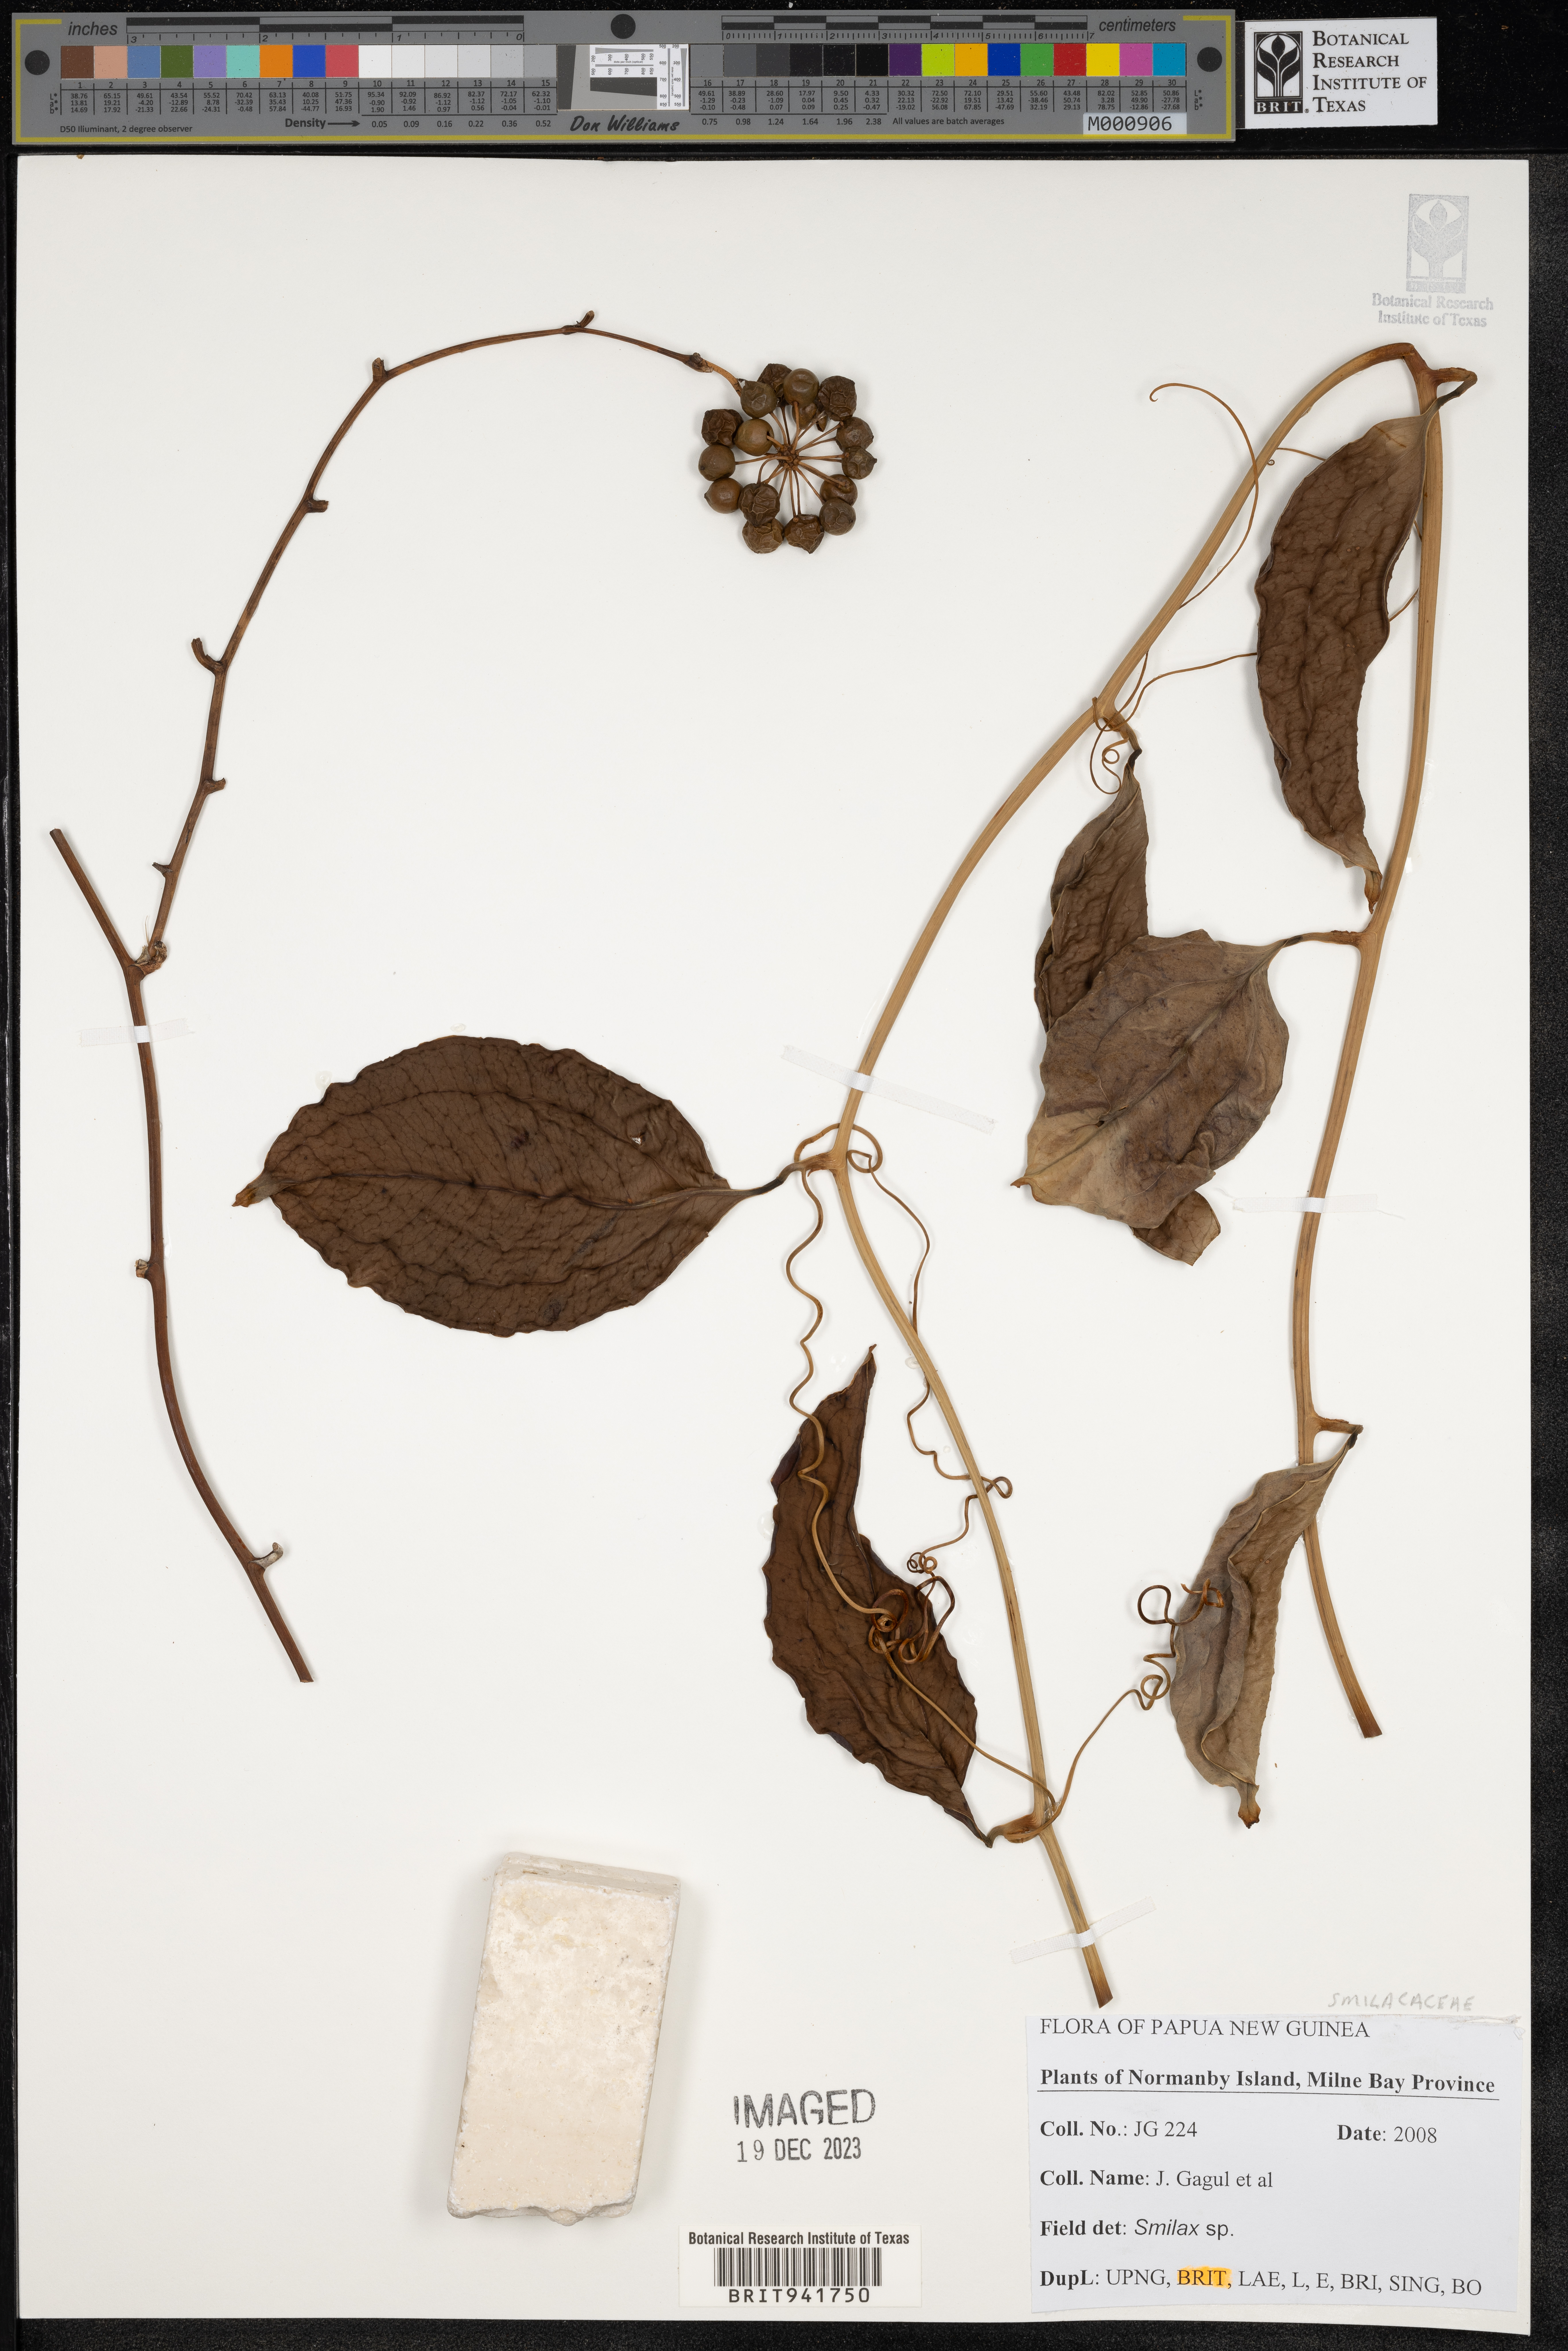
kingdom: Plantae
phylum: Tracheophyta
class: Liliopsida
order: Liliales
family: Smilacaceae
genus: Smilax
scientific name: Smilax
